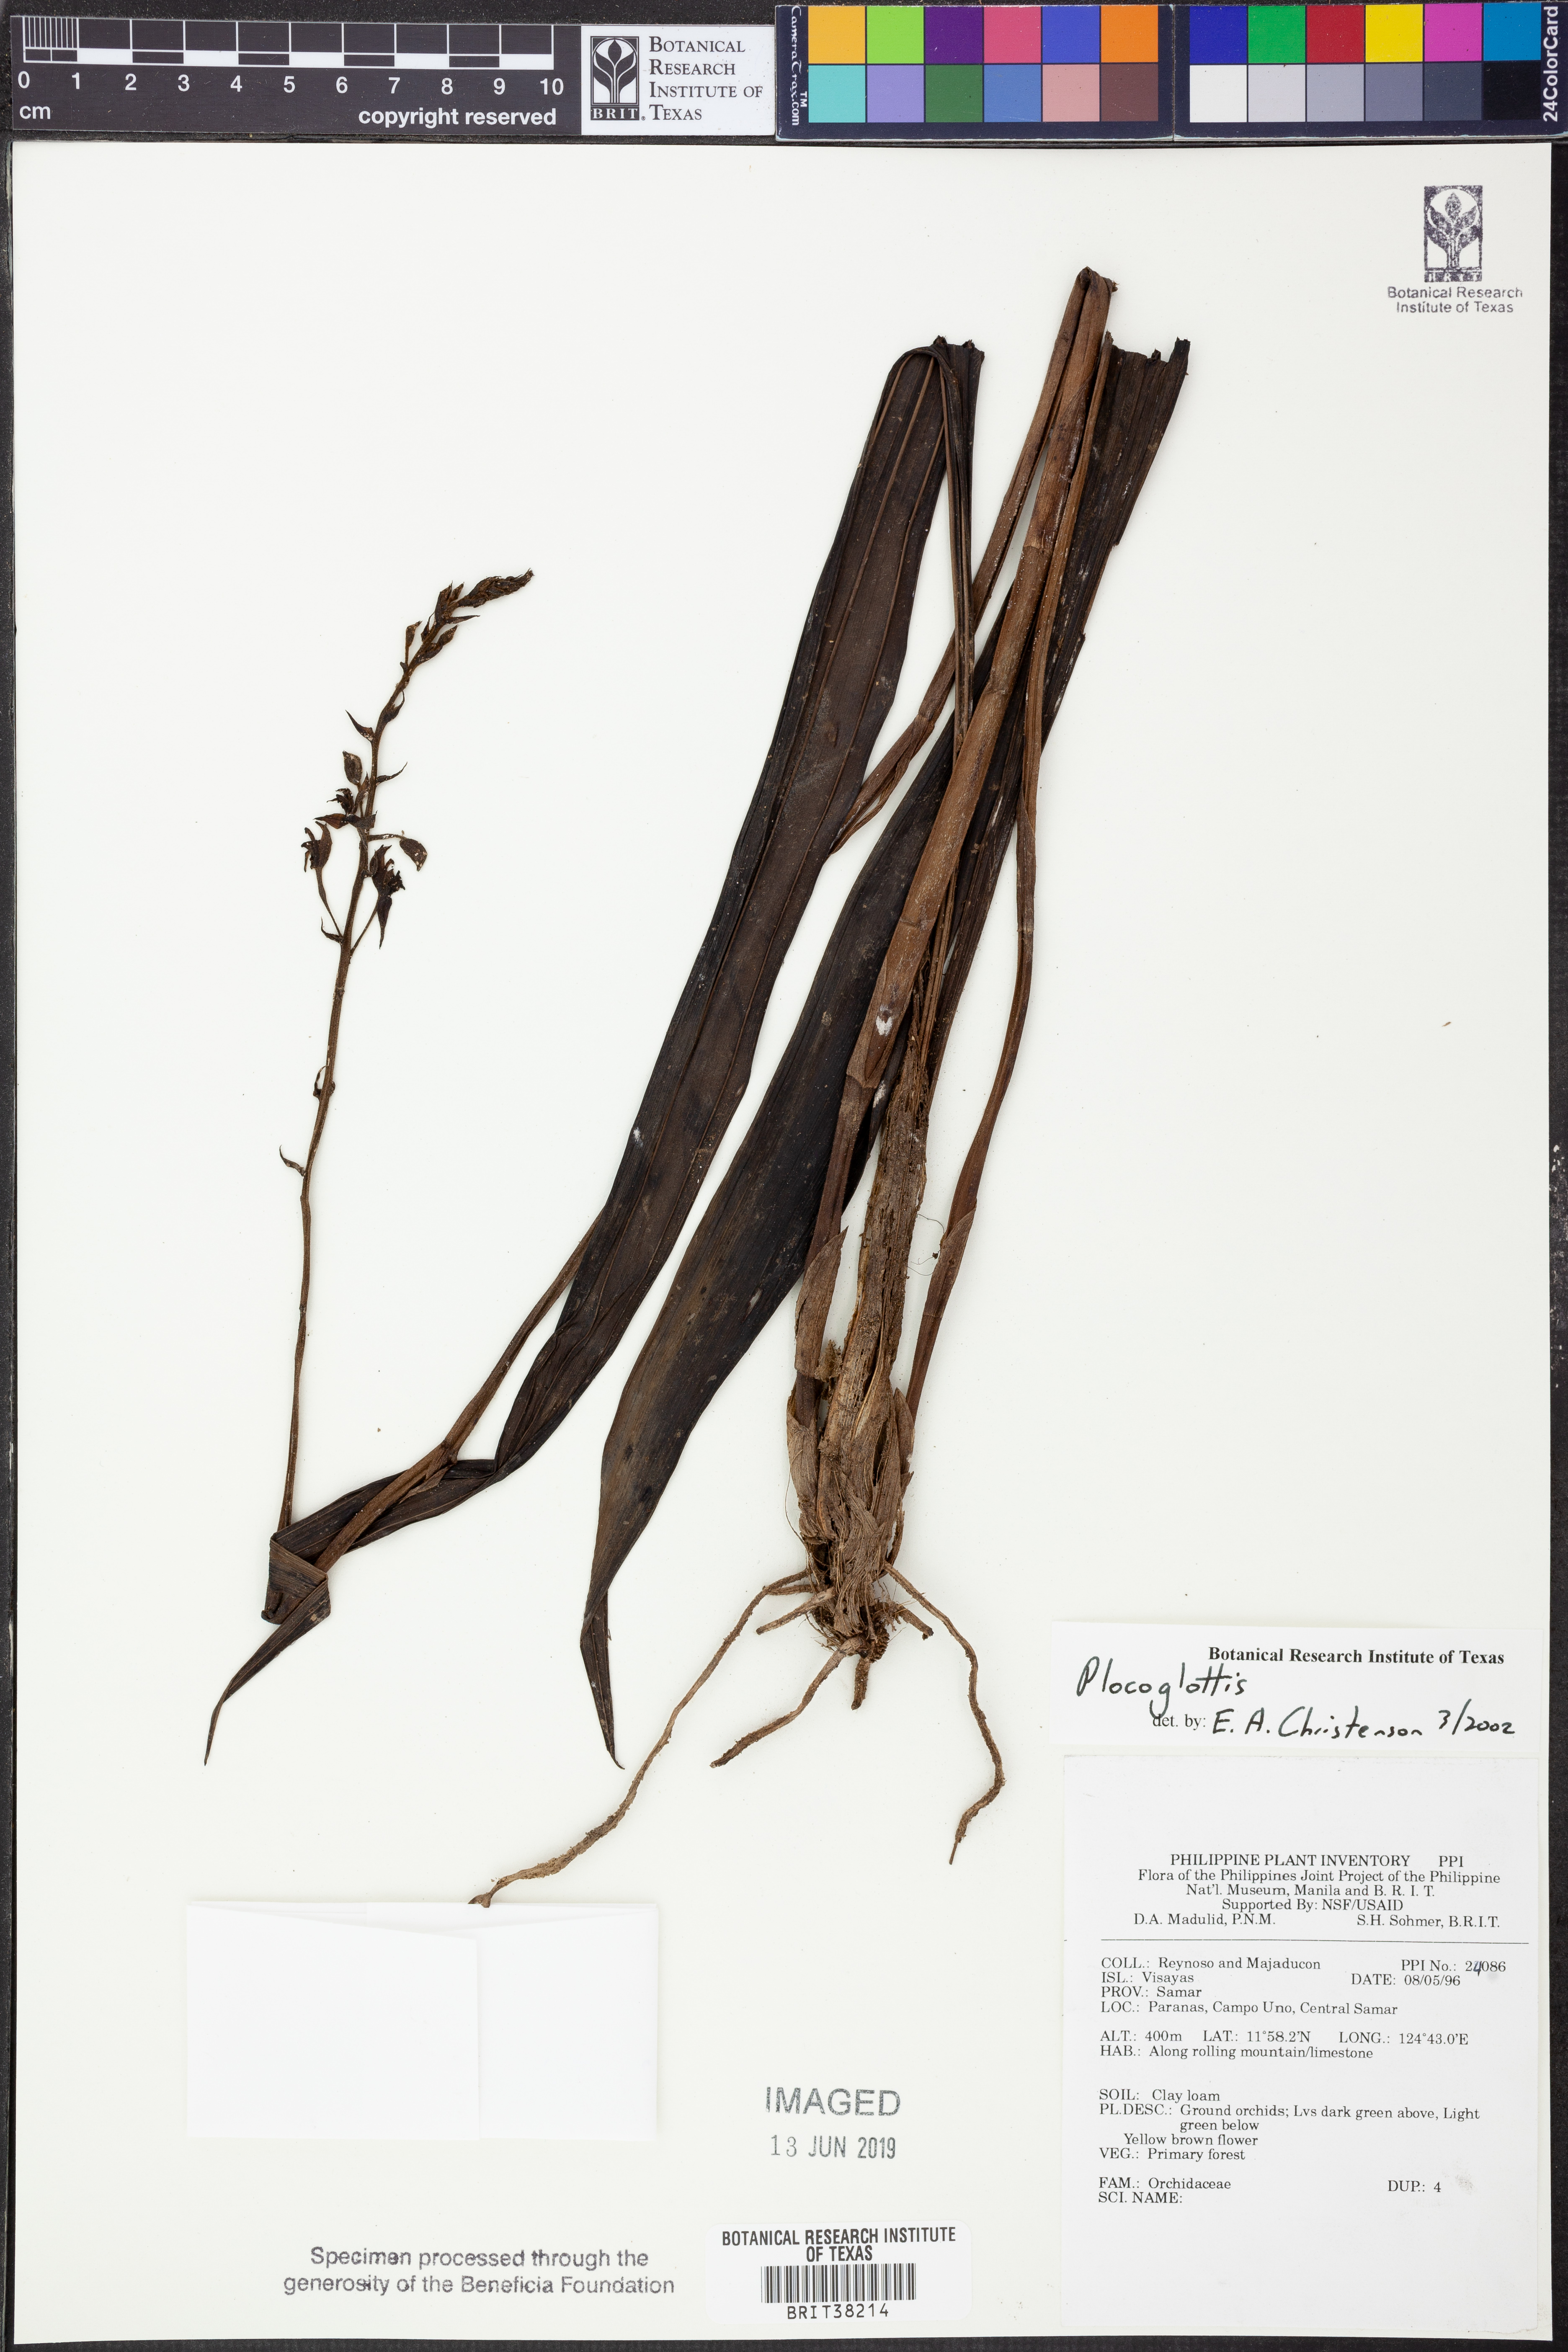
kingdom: Plantae
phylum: Tracheophyta
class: Liliopsida
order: Asparagales
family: Orchidaceae
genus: Plocoglottis
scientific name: Plocoglottis
